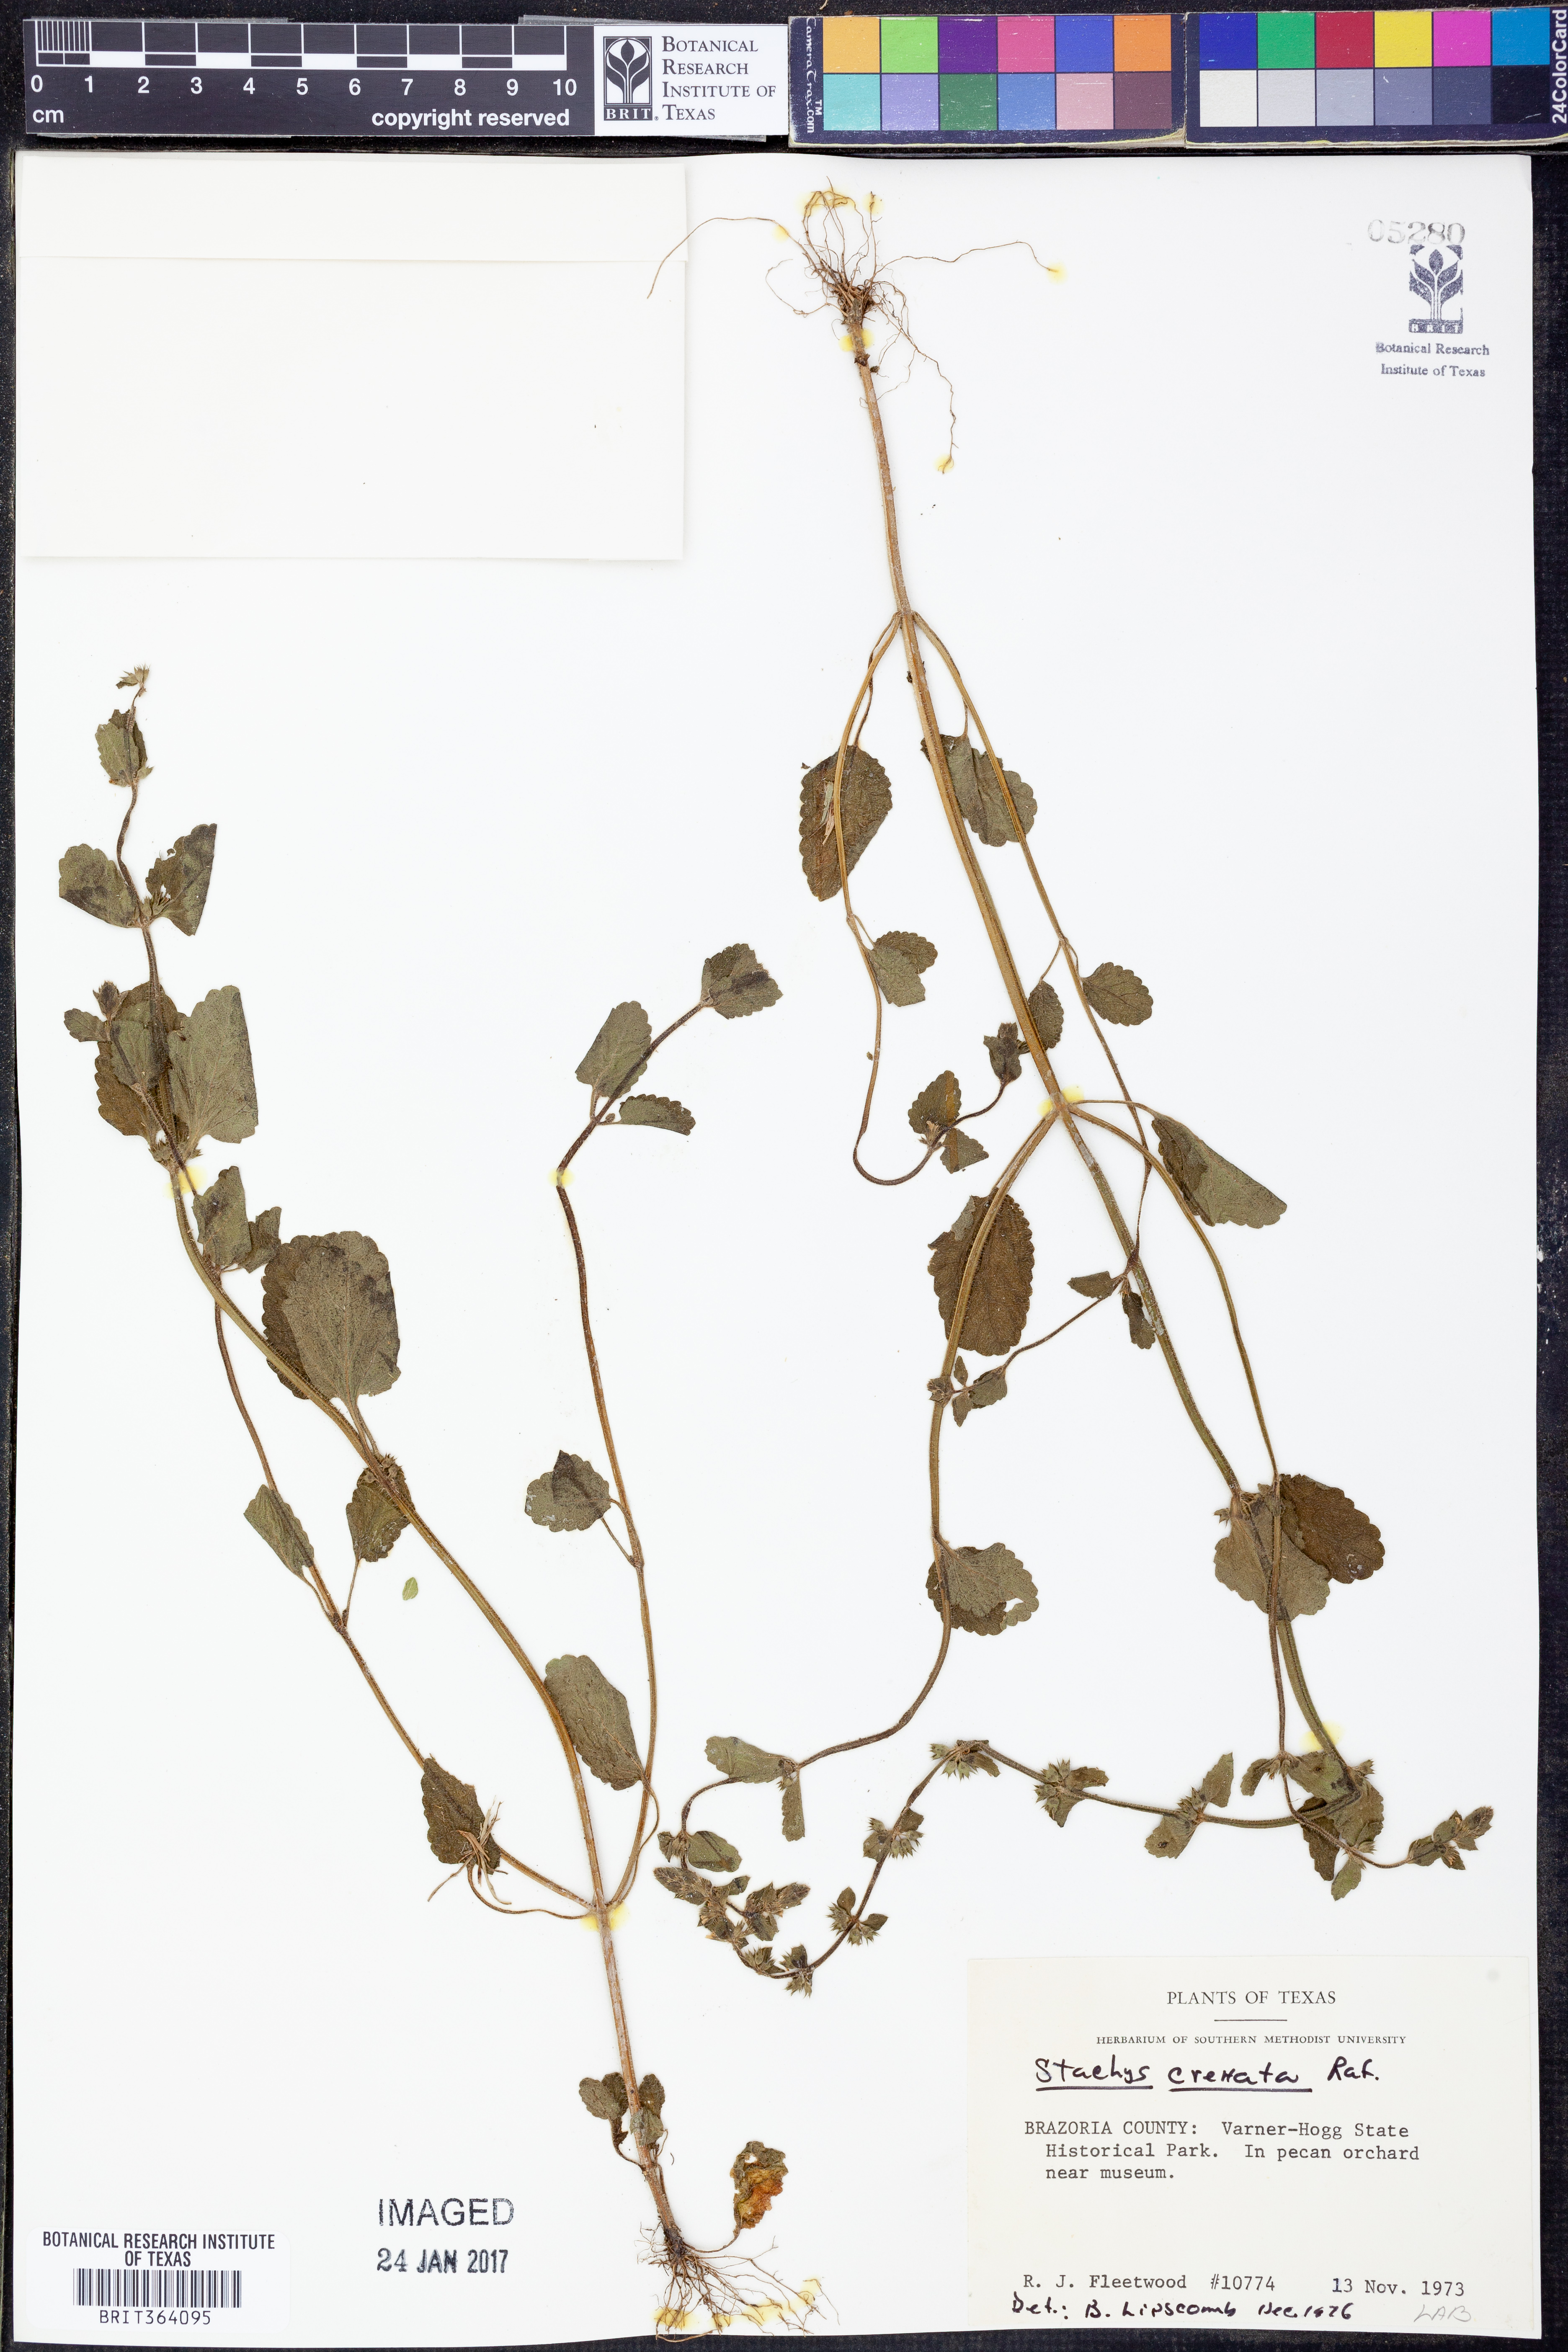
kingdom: Plantae
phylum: Tracheophyta
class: Magnoliopsida
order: Lamiales
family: Lamiaceae
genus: Stachys
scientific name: Stachys agraria
